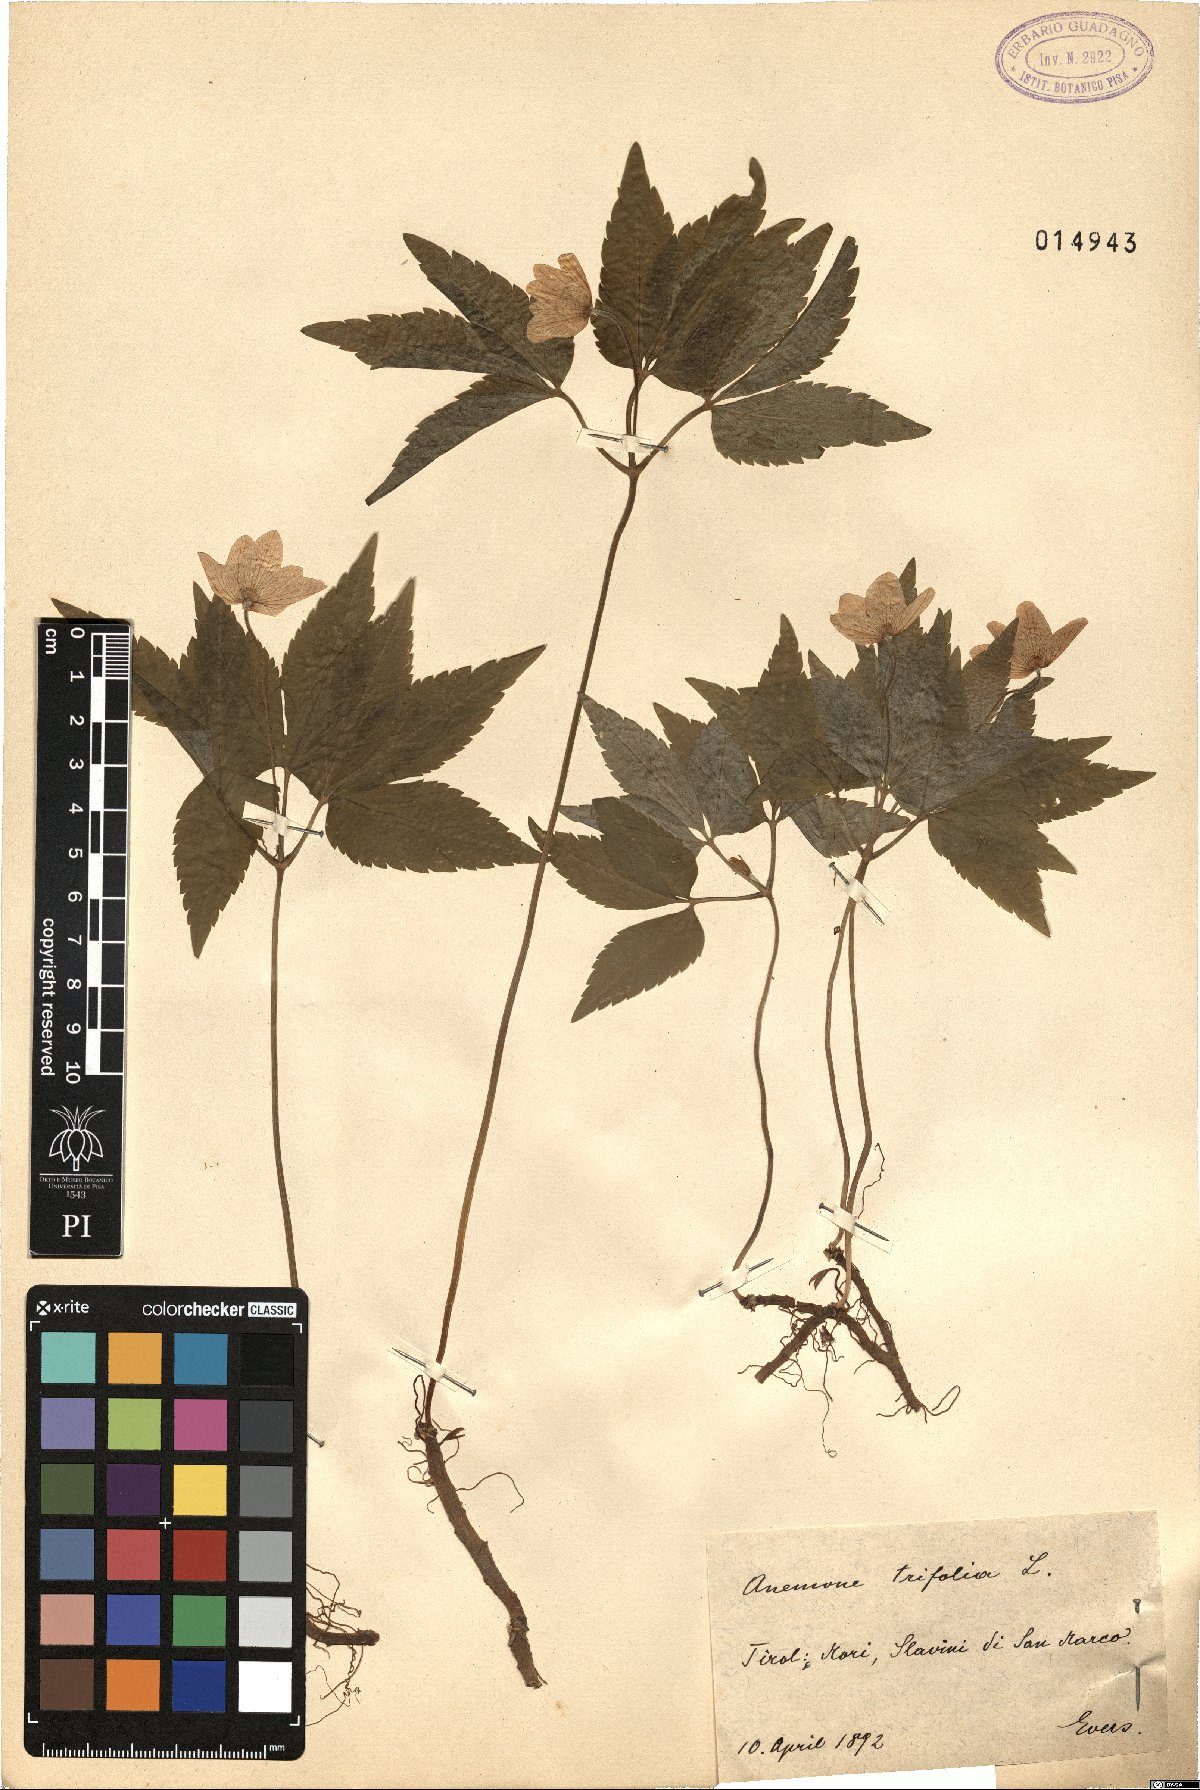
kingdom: Plantae
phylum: Tracheophyta
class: Magnoliopsida
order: Ranunculales
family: Ranunculaceae
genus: Anemone
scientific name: Anemone trifolia
